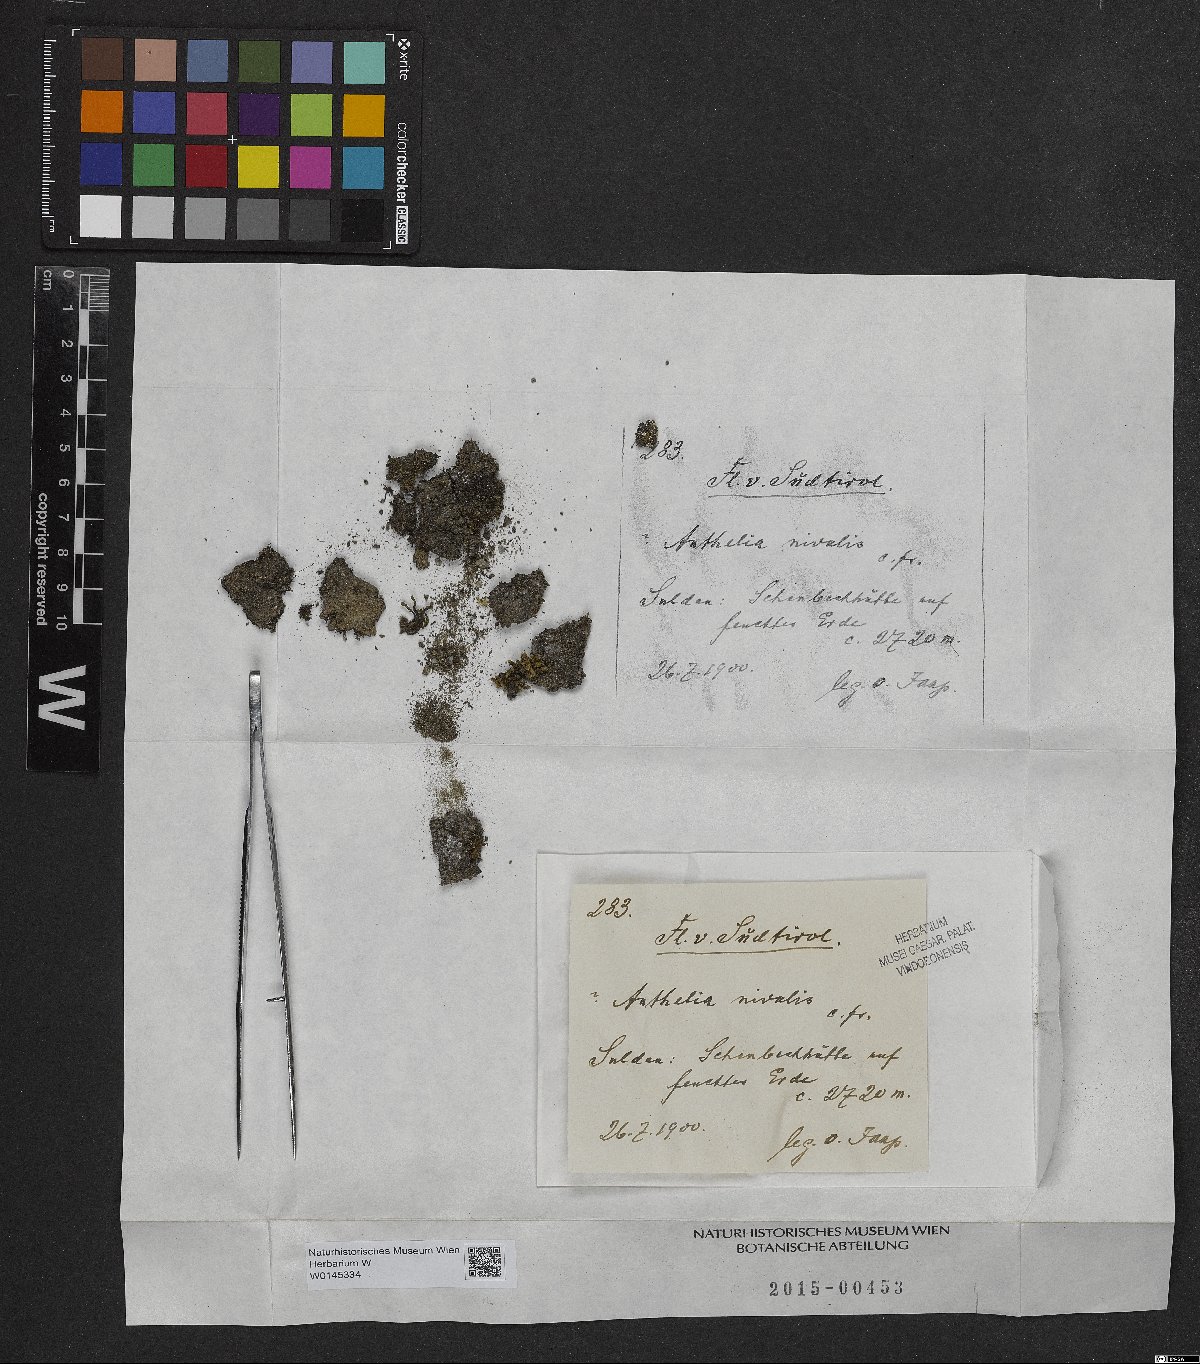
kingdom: Plantae
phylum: Marchantiophyta
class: Jungermanniopsida
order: Jungermanniales
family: Antheliaceae
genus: Anthelia
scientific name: Anthelia juratzkana
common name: Juratzka s silverwort
